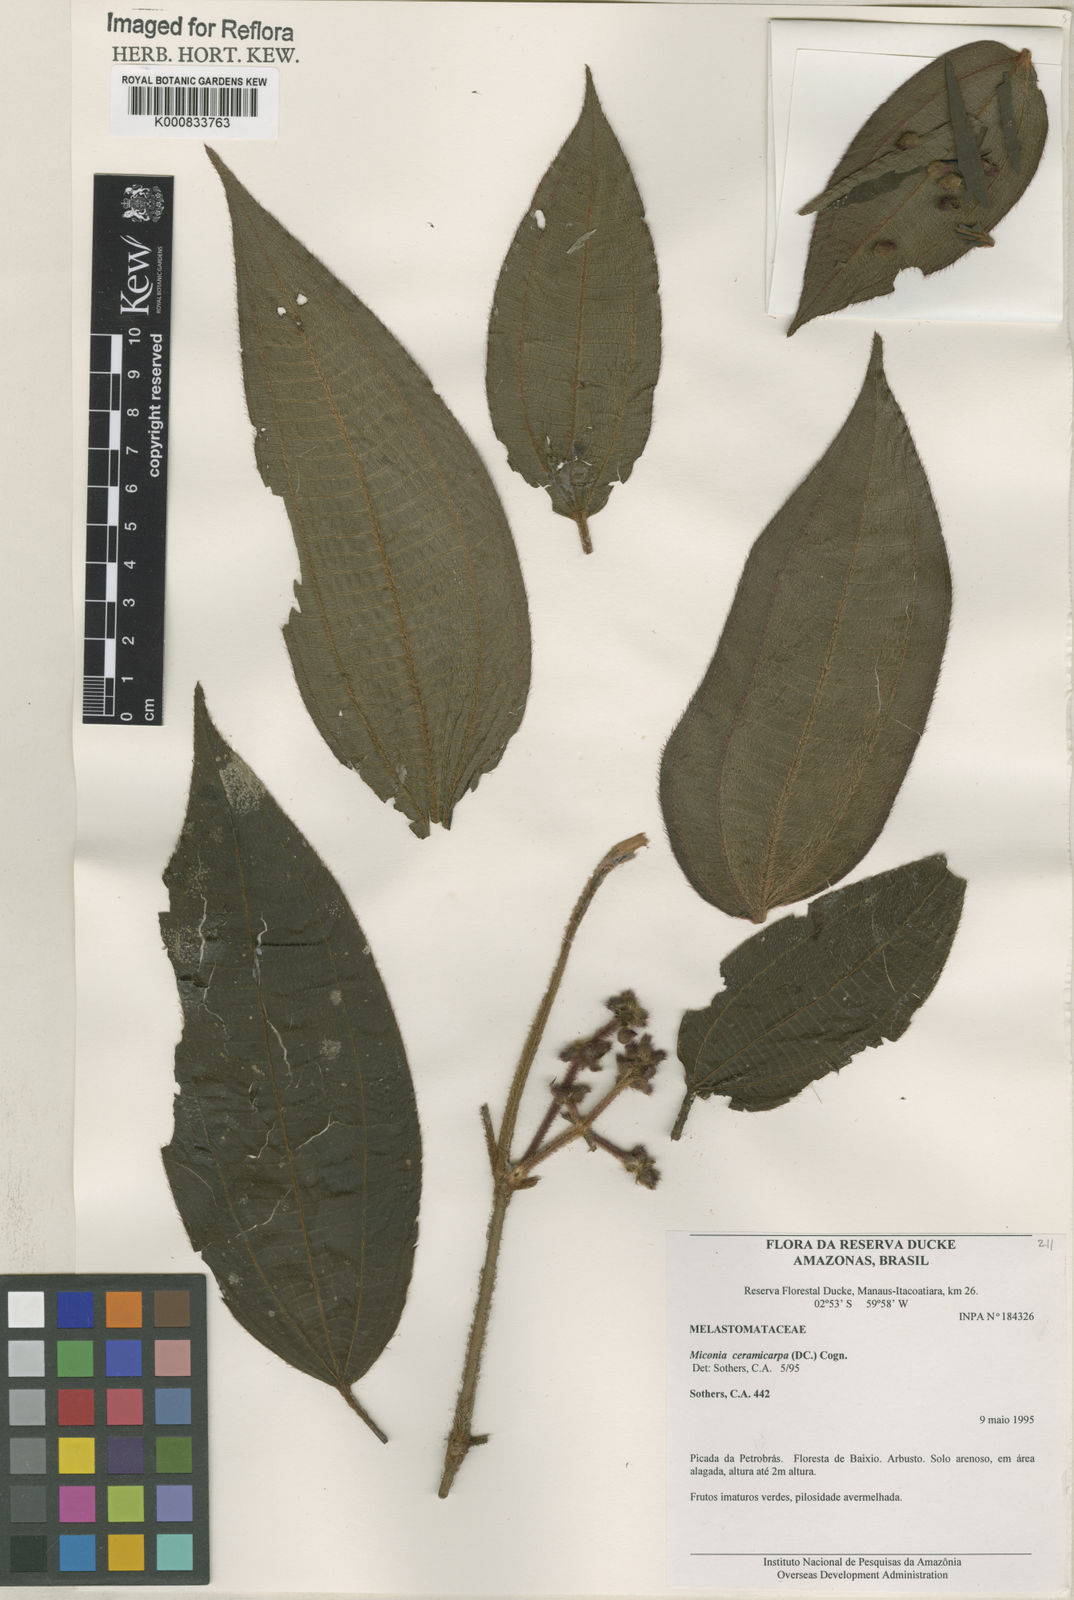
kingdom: Plantae
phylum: Tracheophyta
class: Magnoliopsida
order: Myrtales
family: Melastomataceae
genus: Miconia
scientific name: Miconia ceramicarpa
